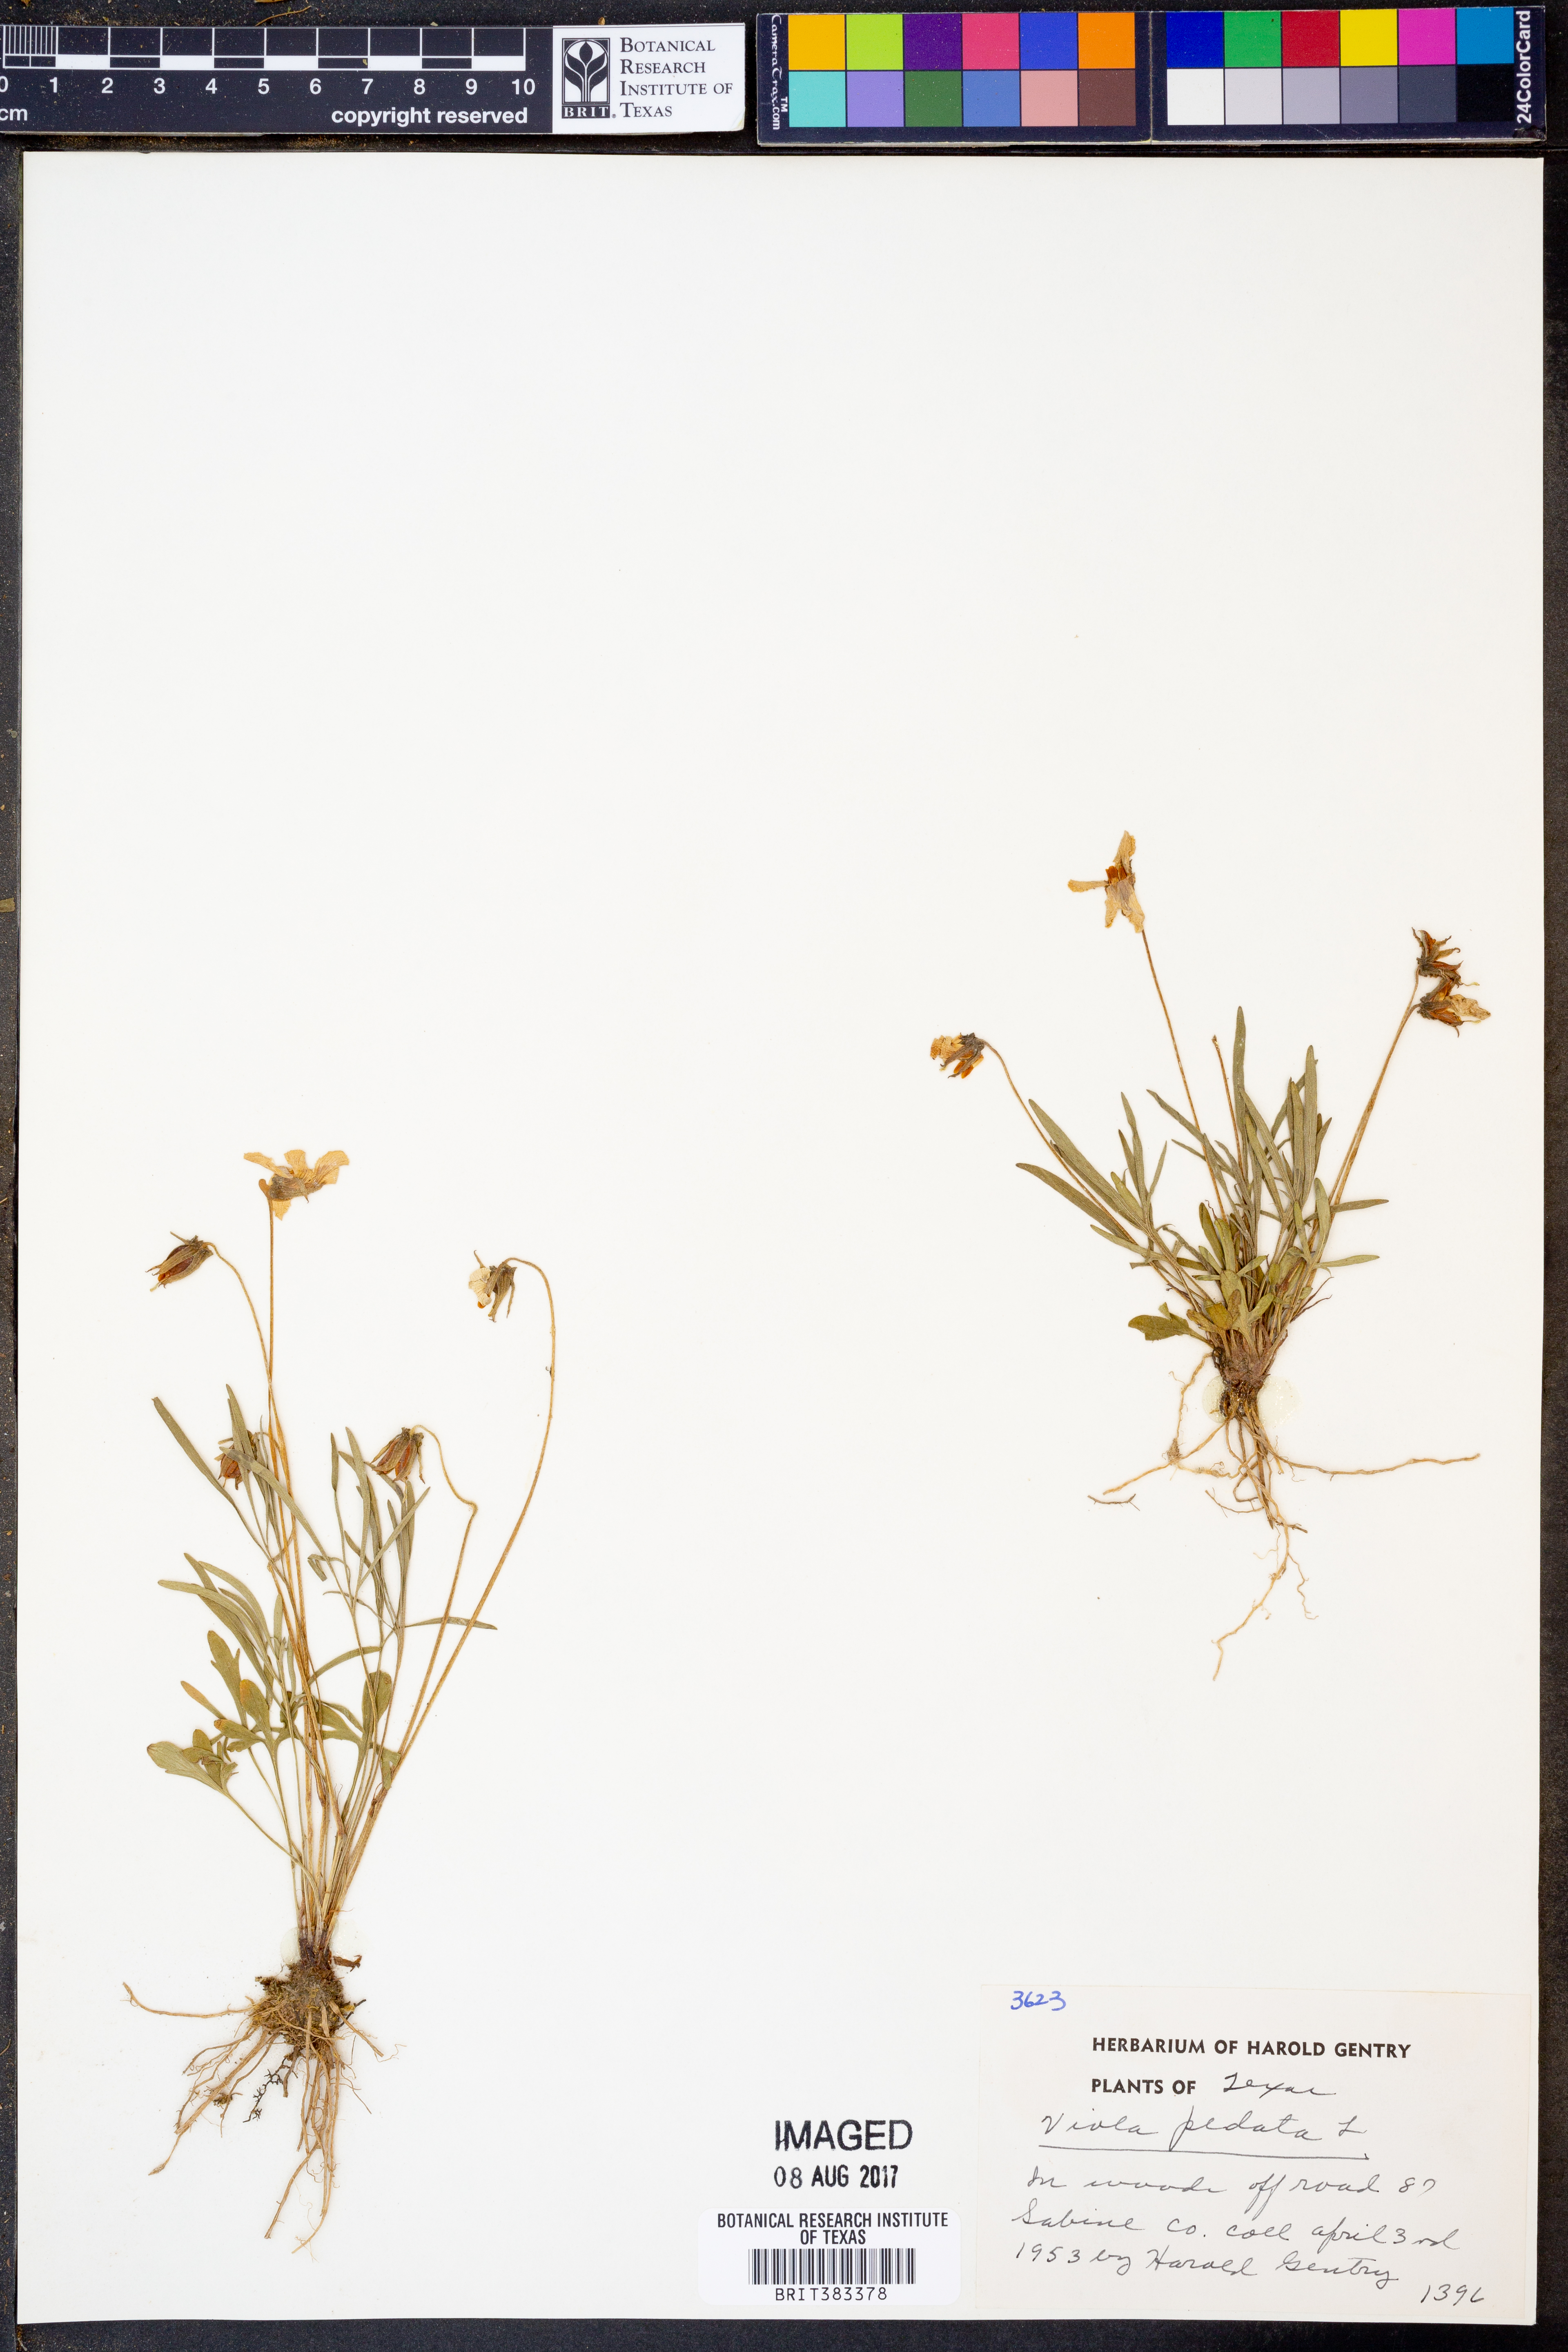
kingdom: Plantae
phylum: Tracheophyta
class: Magnoliopsida
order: Malpighiales
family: Violaceae
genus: Viola
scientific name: Viola pedata
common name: Pansy violet
